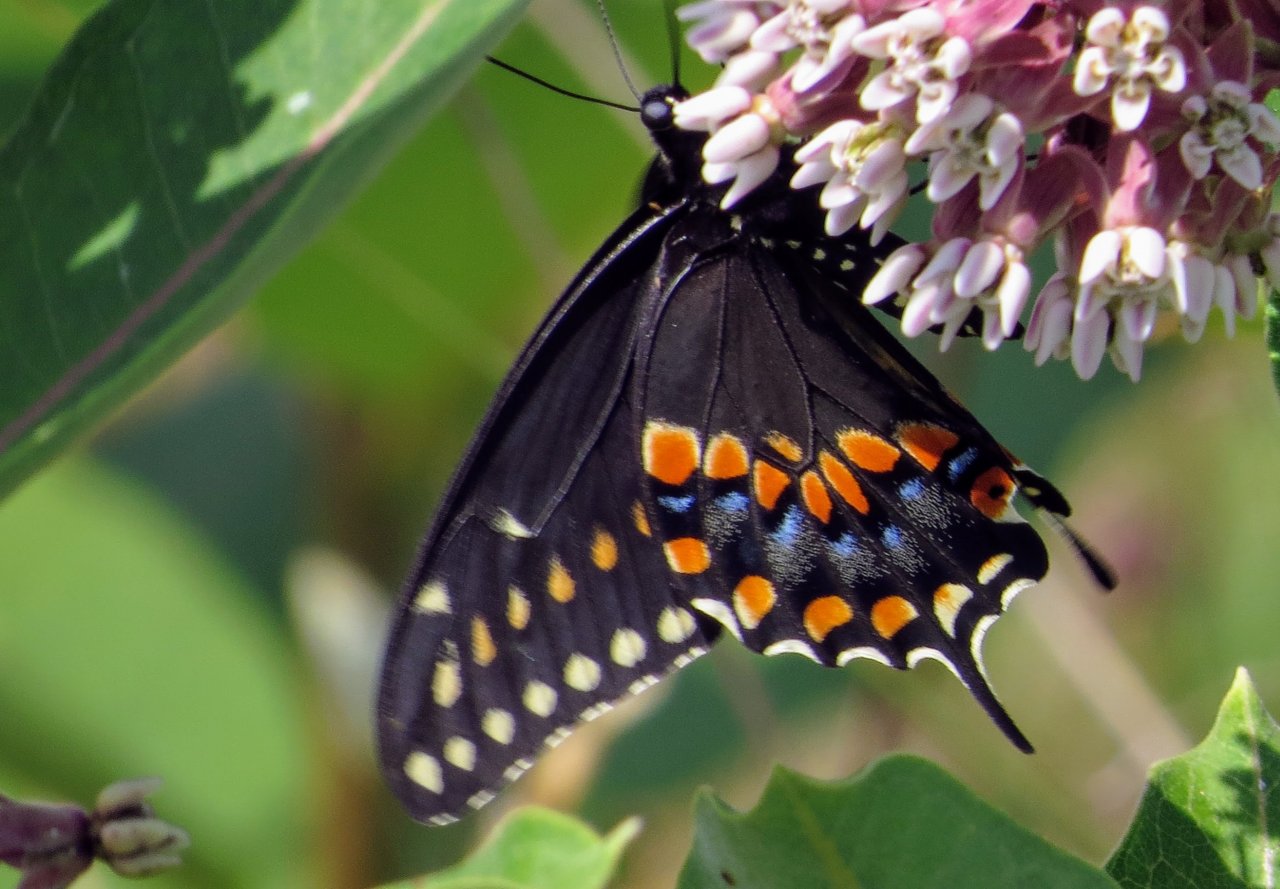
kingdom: Animalia
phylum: Arthropoda
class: Insecta
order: Lepidoptera
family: Papilionidae
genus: Papilio
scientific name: Papilio polyxenes
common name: Black Swallowtail
